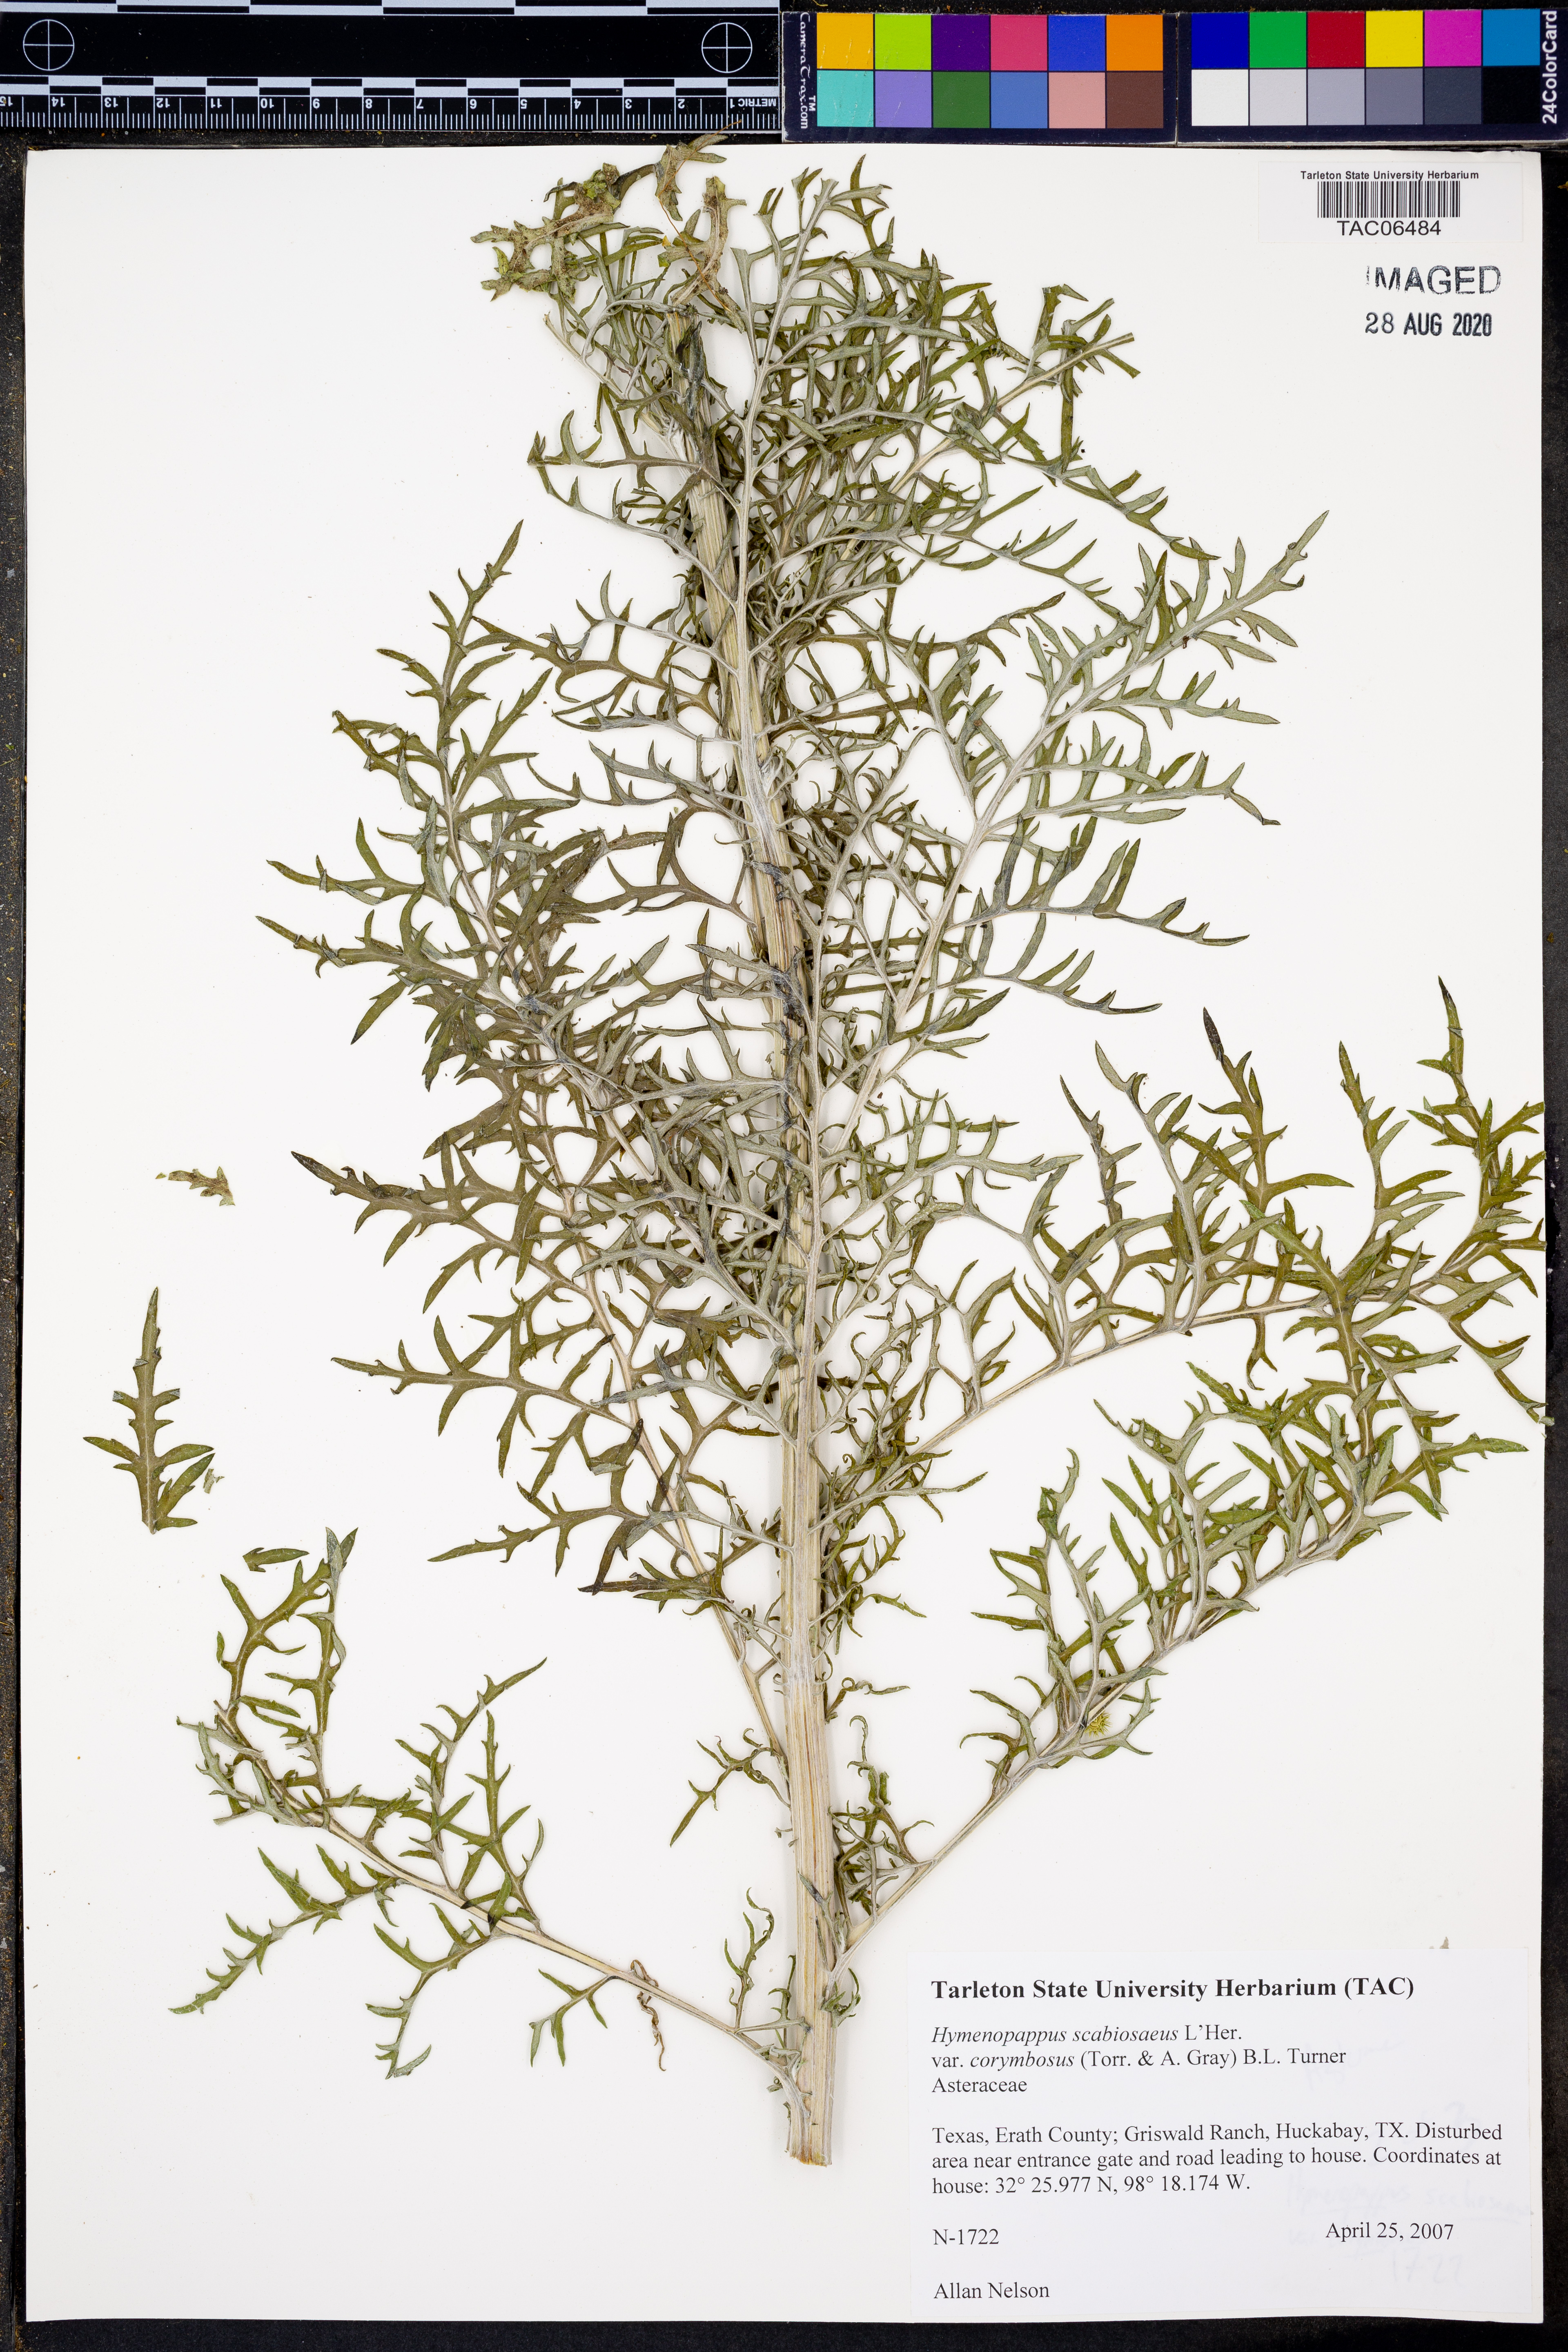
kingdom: Plantae
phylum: Tracheophyta
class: Magnoliopsida
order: Asterales
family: Asteraceae
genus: Hymenopappus
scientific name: Hymenopappus scabiosaeus
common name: Carolina woollywhite
